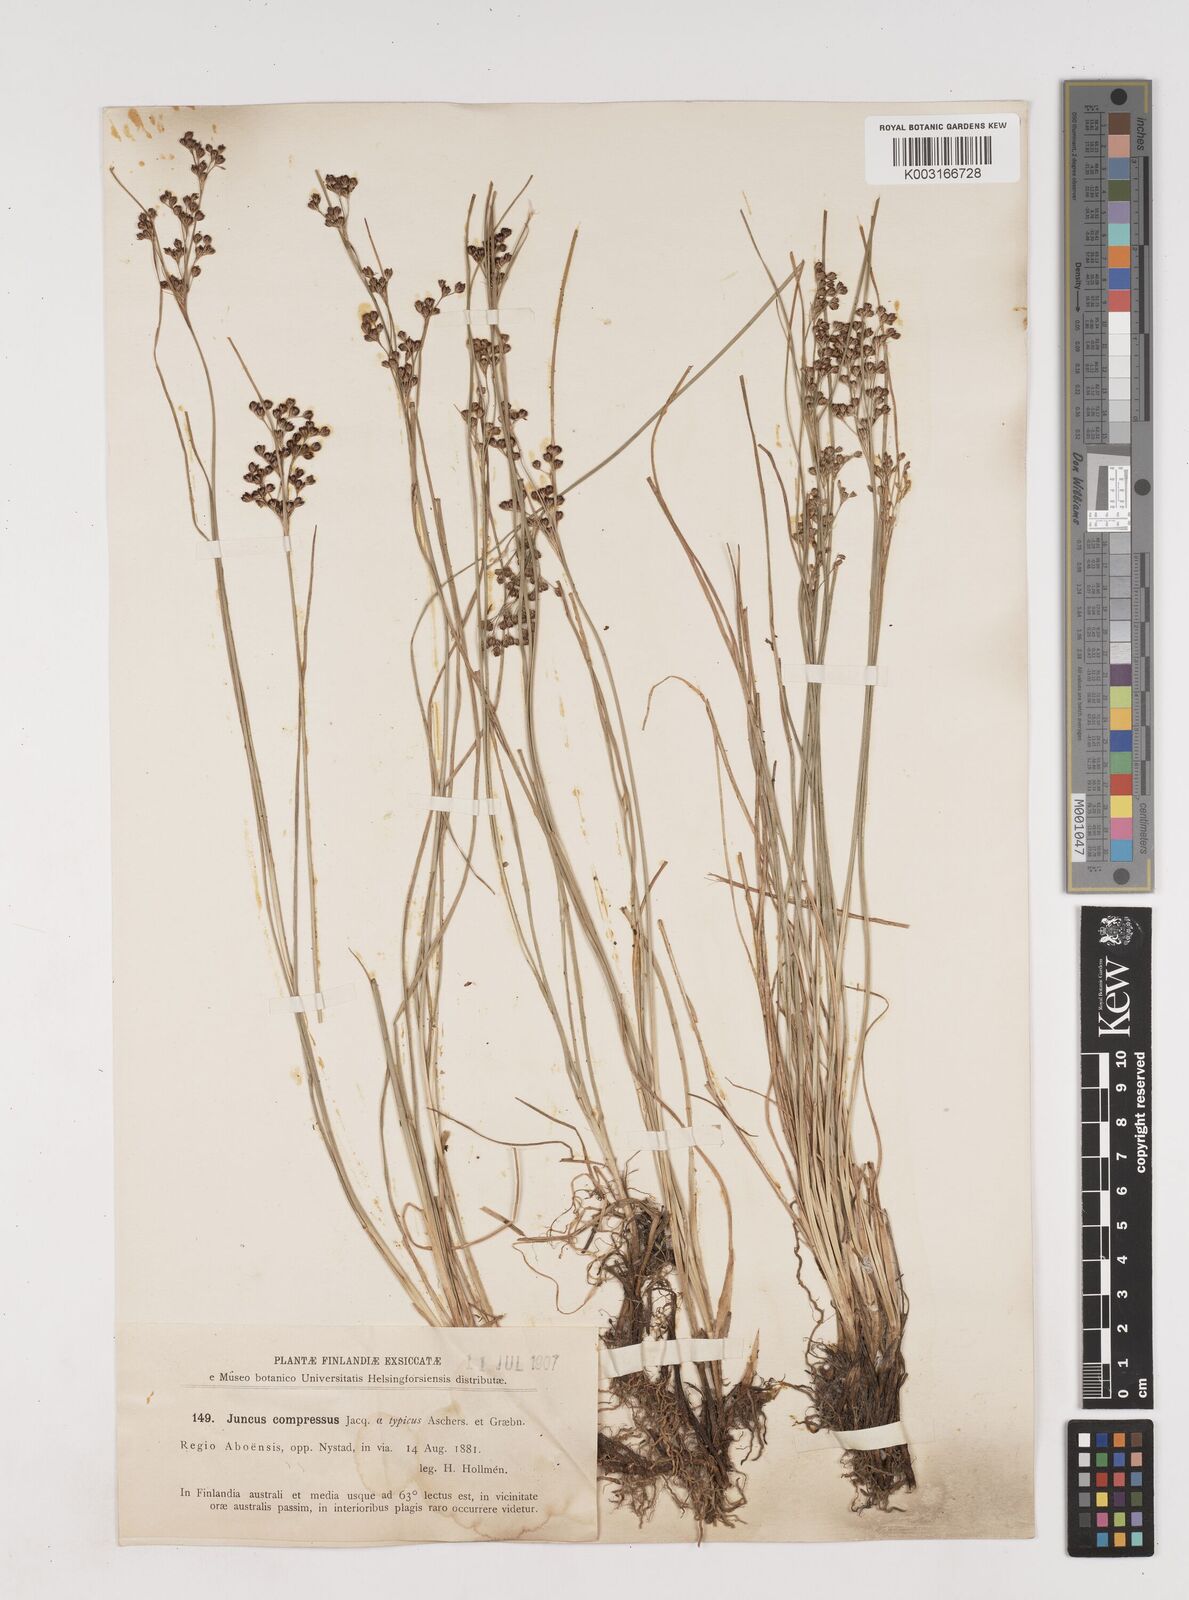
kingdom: Plantae
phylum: Tracheophyta
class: Liliopsida
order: Poales
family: Juncaceae
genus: Juncus
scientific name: Juncus
